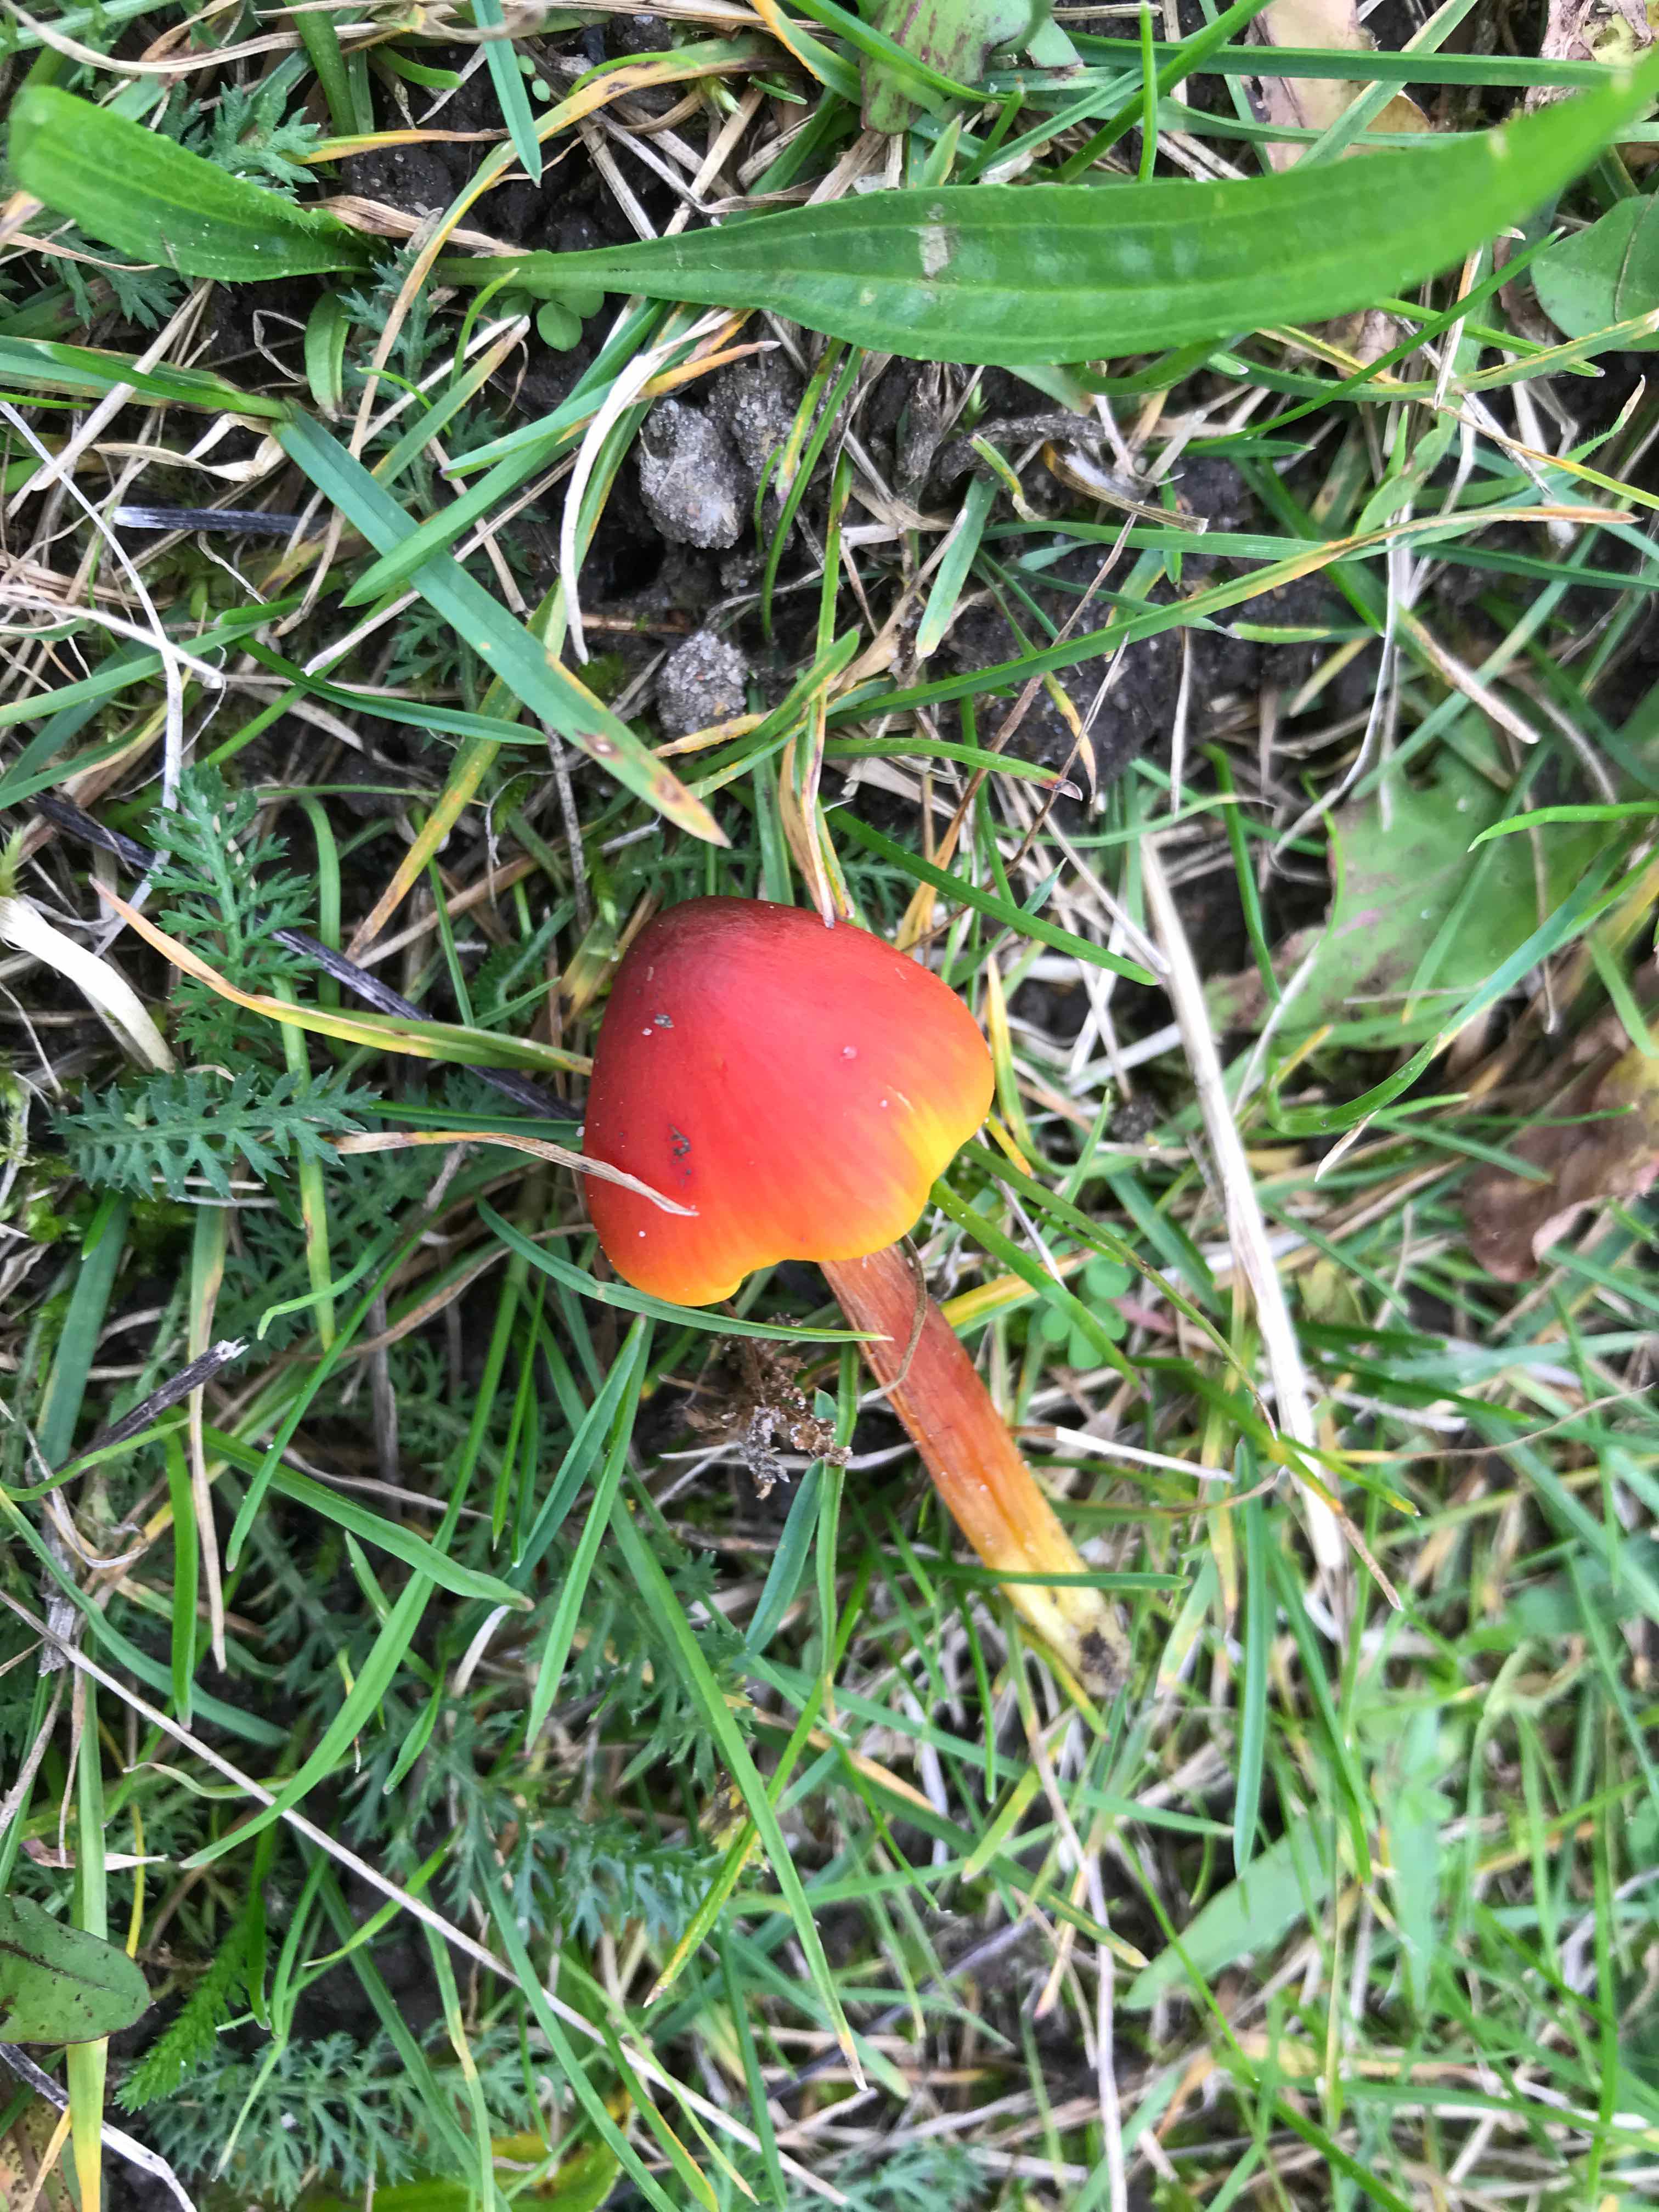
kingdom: Fungi
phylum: Basidiomycota
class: Agaricomycetes
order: Agaricales
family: Hygrophoraceae
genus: Hygrocybe
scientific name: Hygrocybe conica
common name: kegle-vokshat
